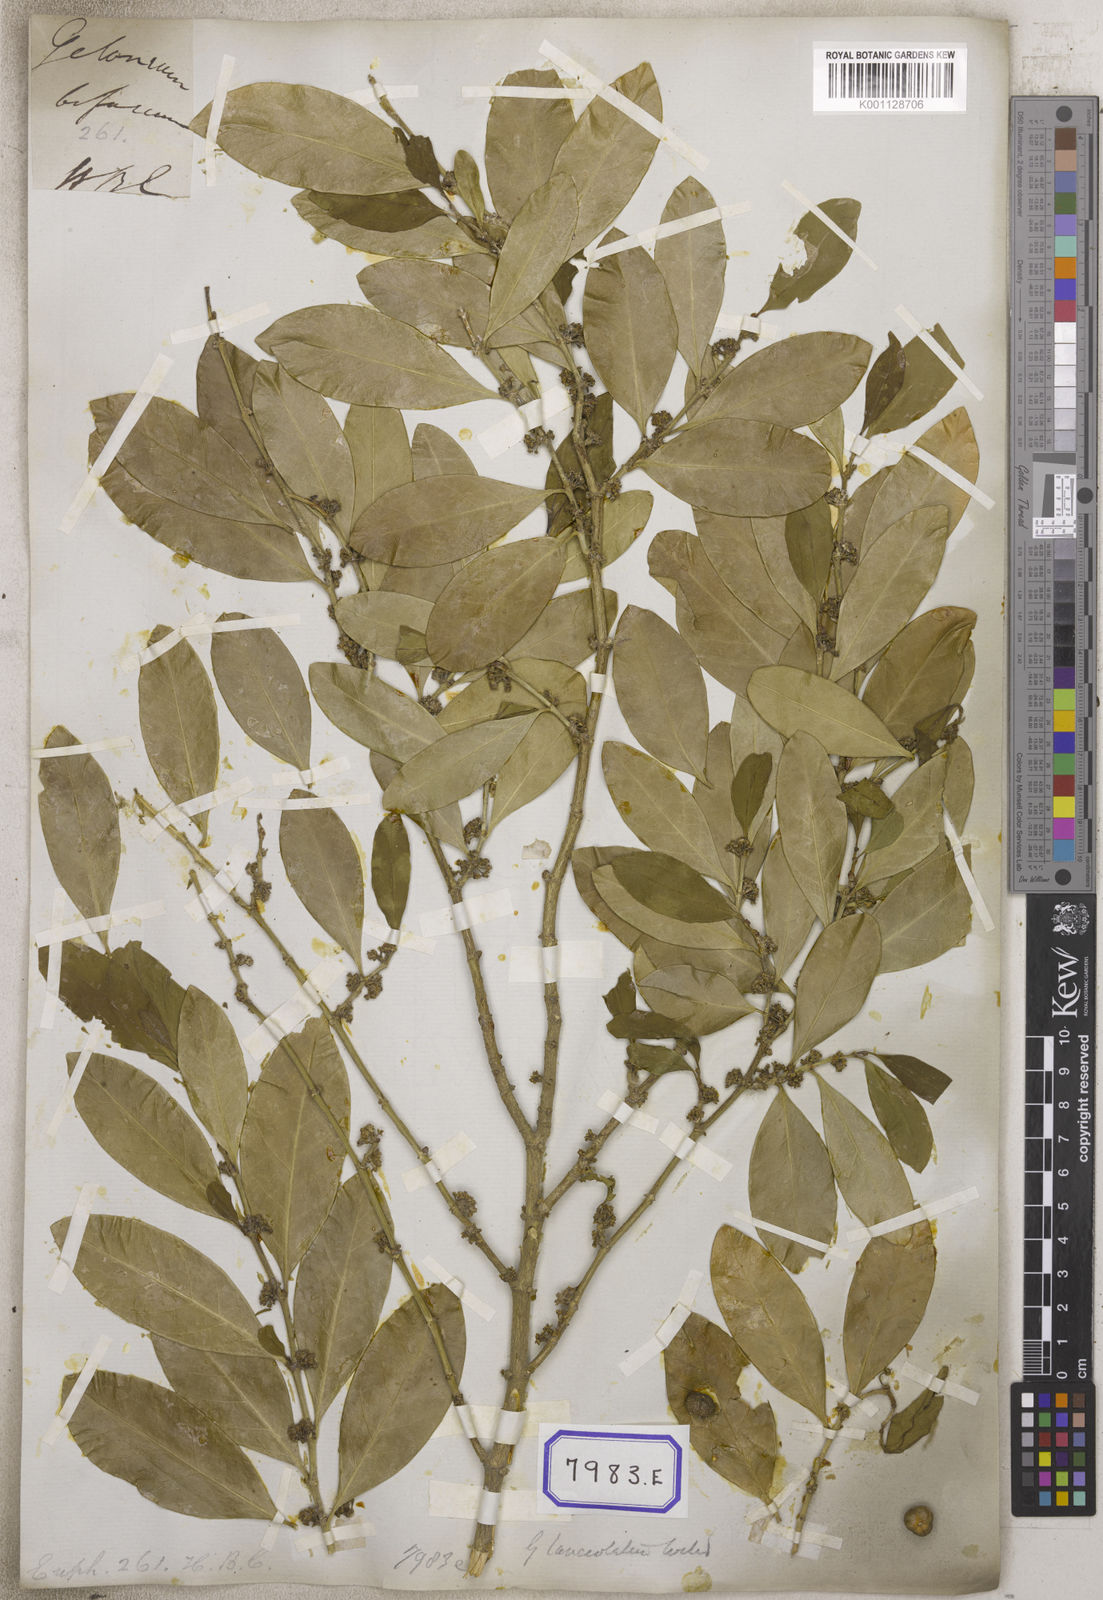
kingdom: Plantae
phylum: Tracheophyta
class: Magnoliopsida
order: Malpighiales
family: Euphorbiaceae
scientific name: Euphorbiaceae
